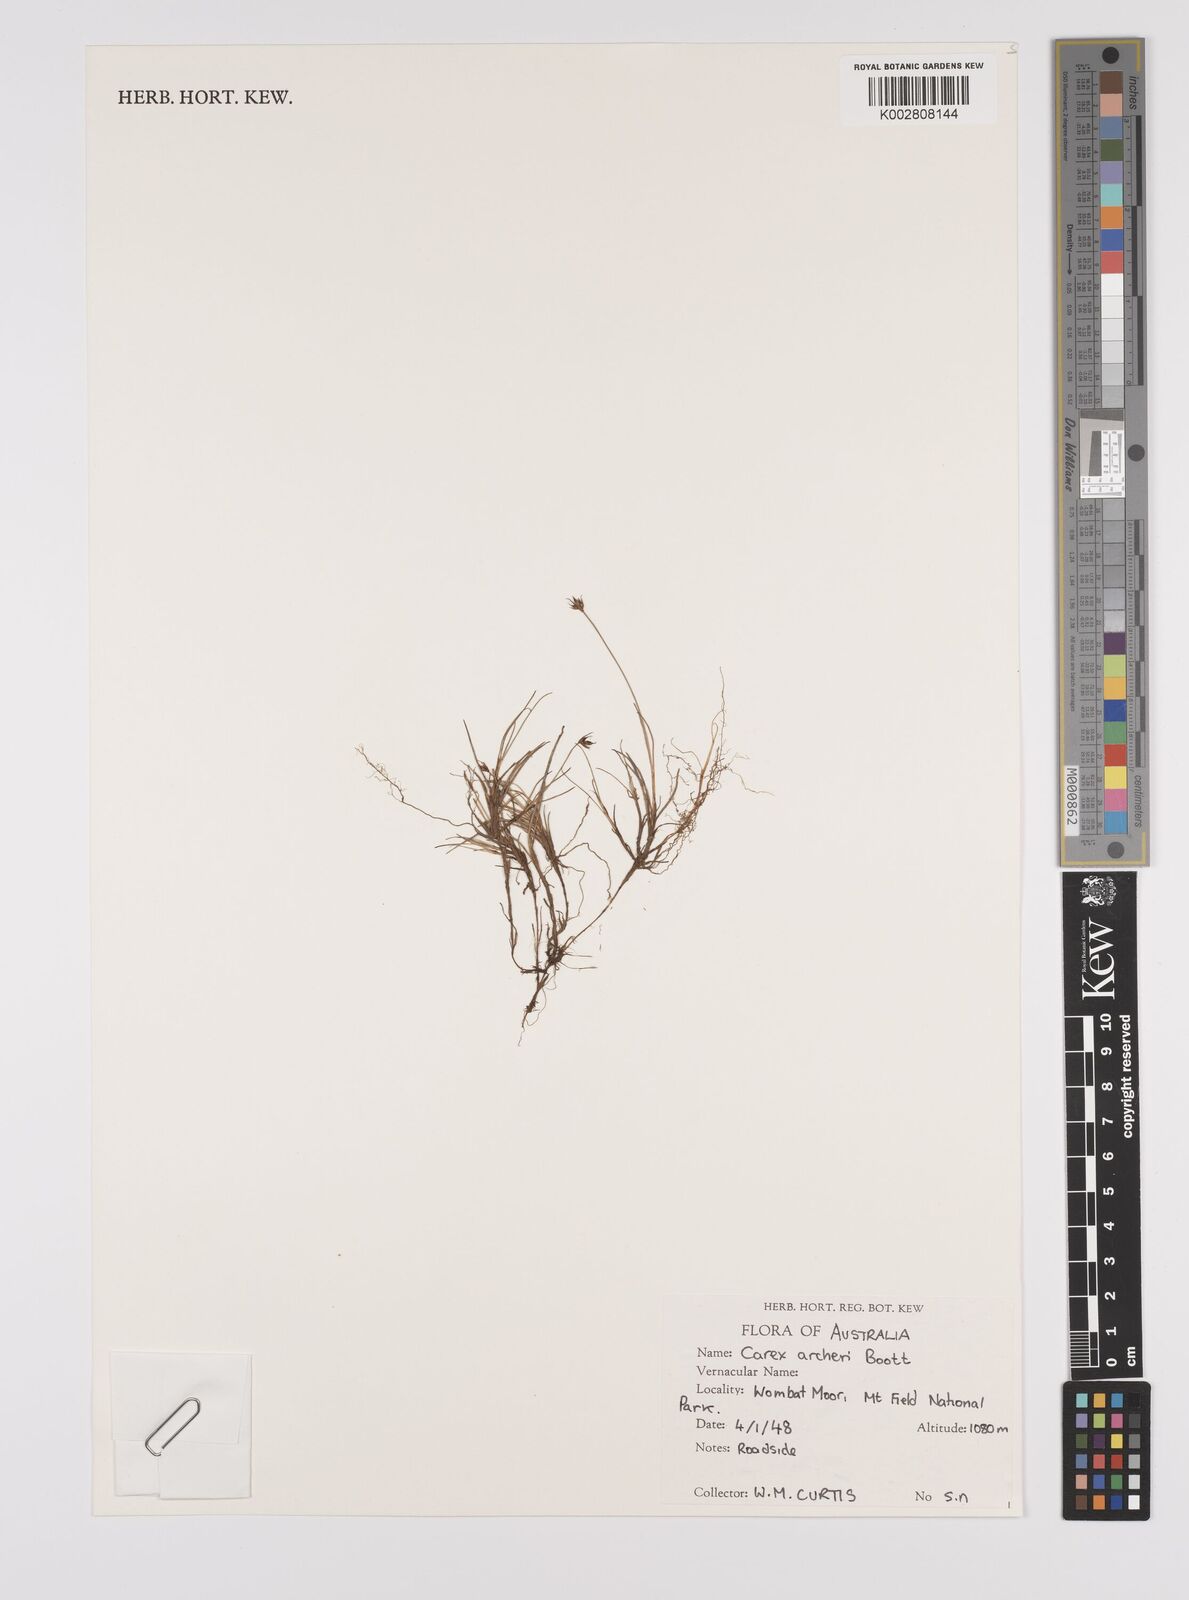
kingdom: Plantae
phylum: Tracheophyta
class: Liliopsida
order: Poales
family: Cyperaceae
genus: Carex
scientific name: Carex acicularis
